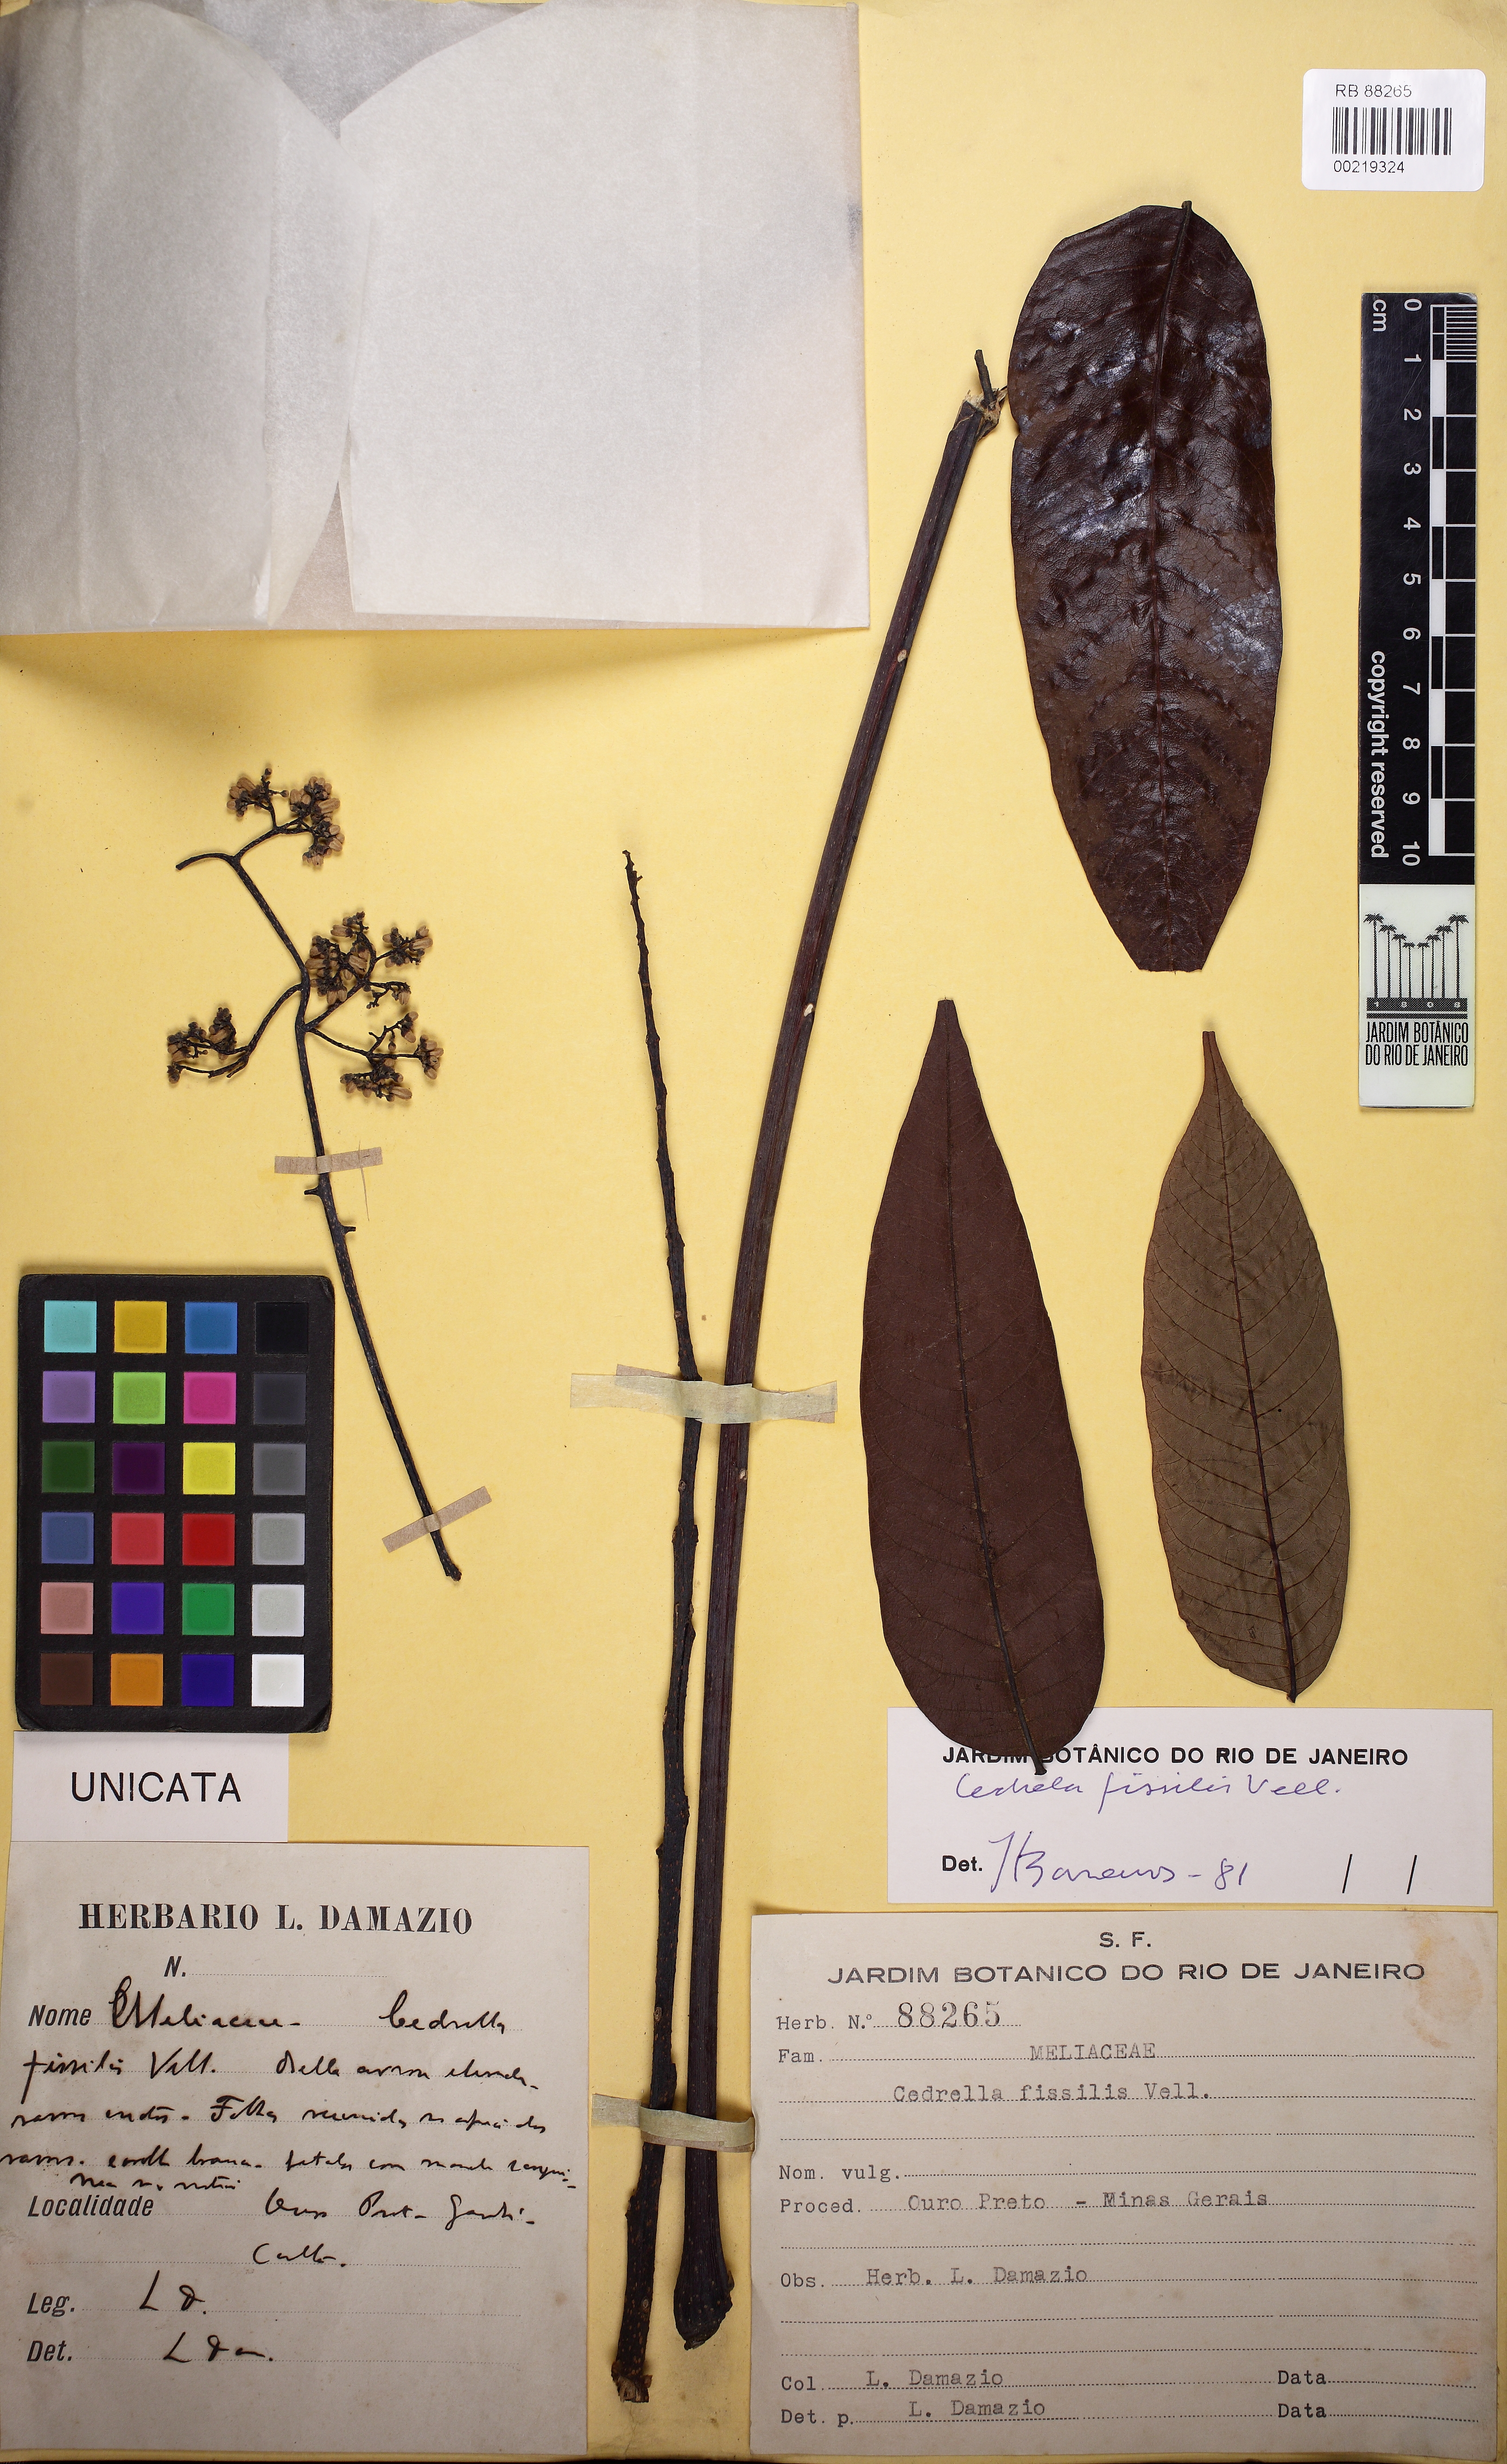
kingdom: Plantae
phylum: Tracheophyta
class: Magnoliopsida
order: Sapindales
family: Meliaceae
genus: Cedrela
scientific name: Cedrela fissilis
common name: Argentine cedar
